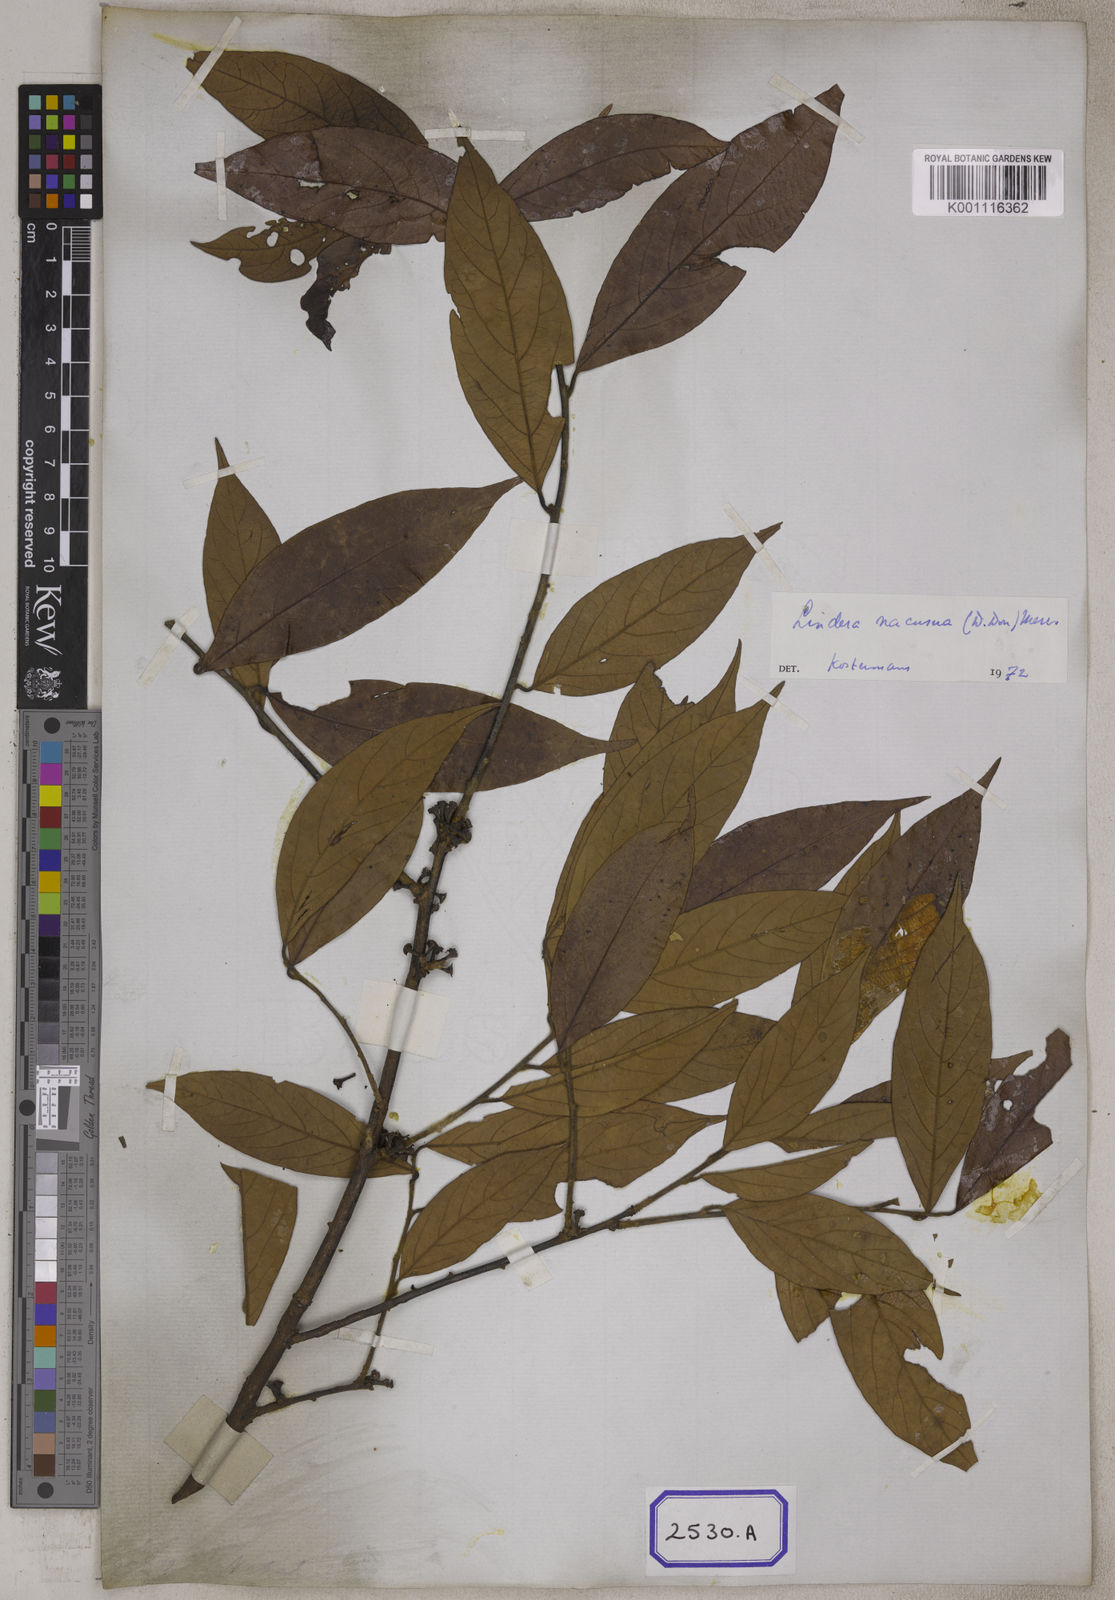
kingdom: Plantae
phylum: Tracheophyta
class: Magnoliopsida
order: Laurales
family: Lauraceae
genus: Lindera
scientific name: Lindera nacusua
